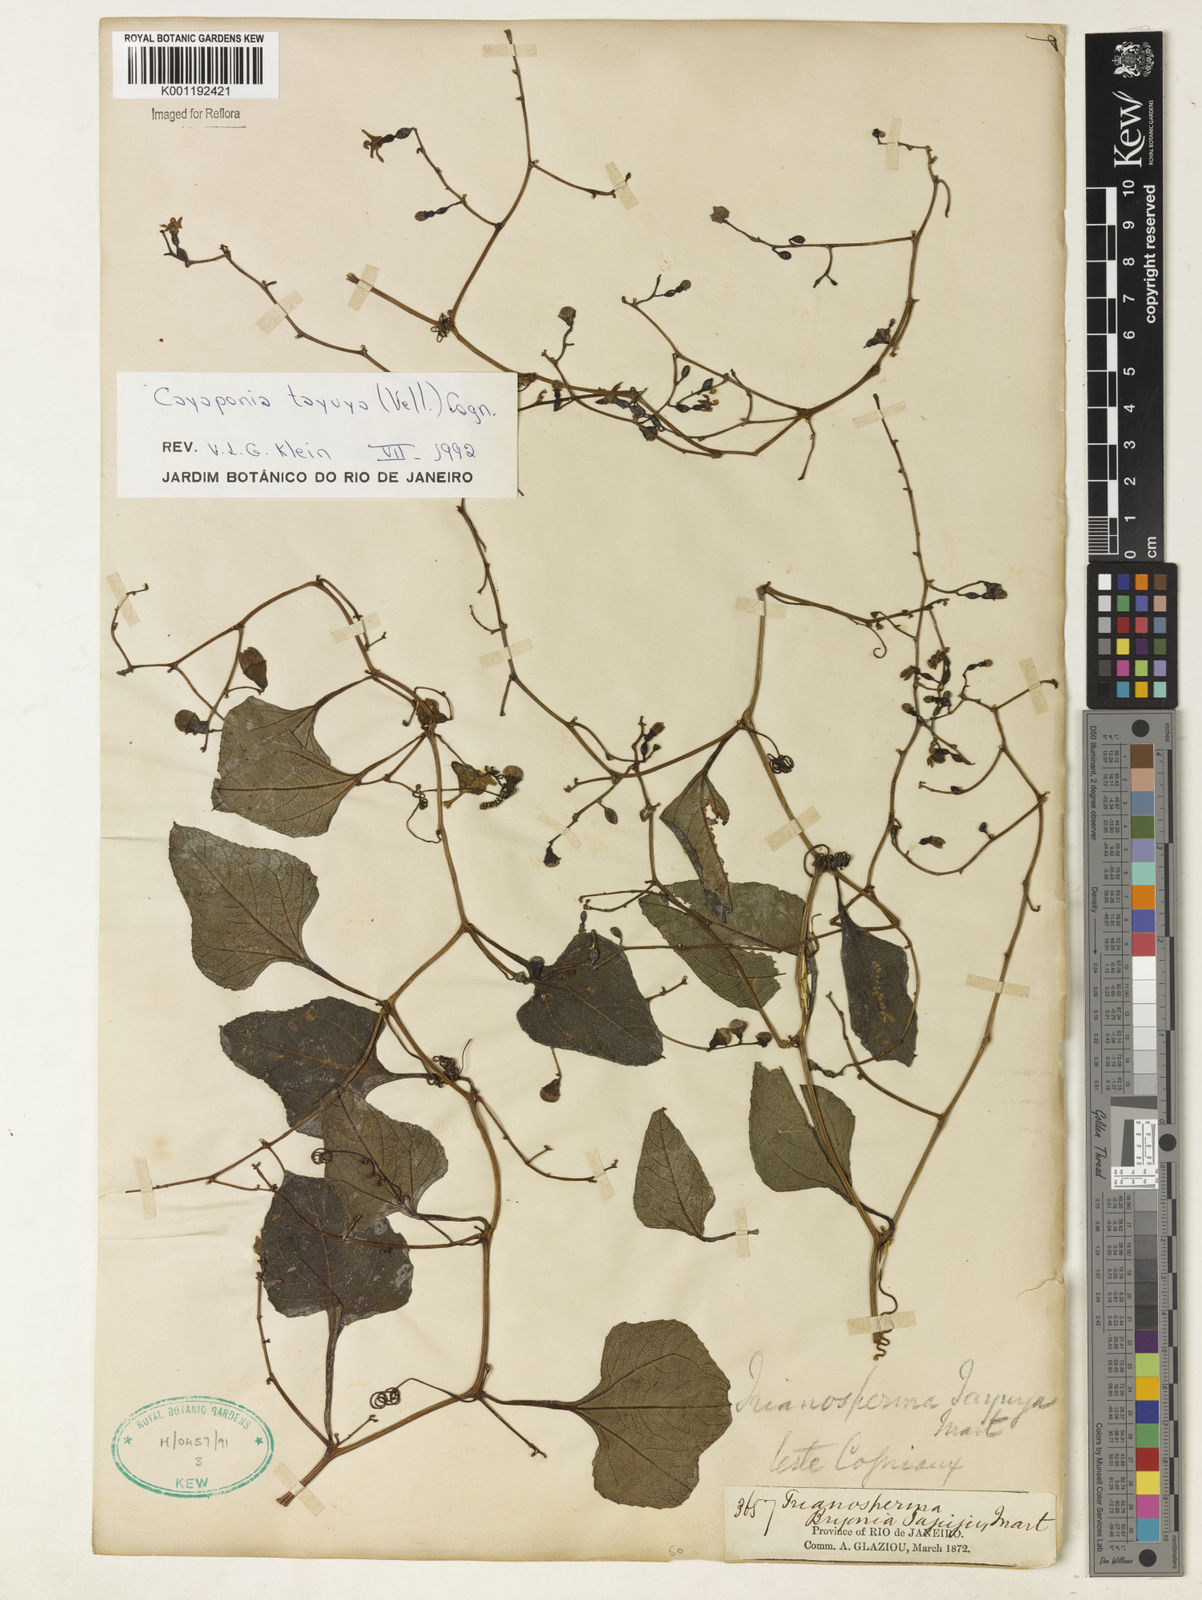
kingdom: Plantae
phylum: Tracheophyta
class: Magnoliopsida
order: Cucurbitales
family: Cucurbitaceae
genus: Cayaponia
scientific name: Cayaponia tayuya
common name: Tayuya
